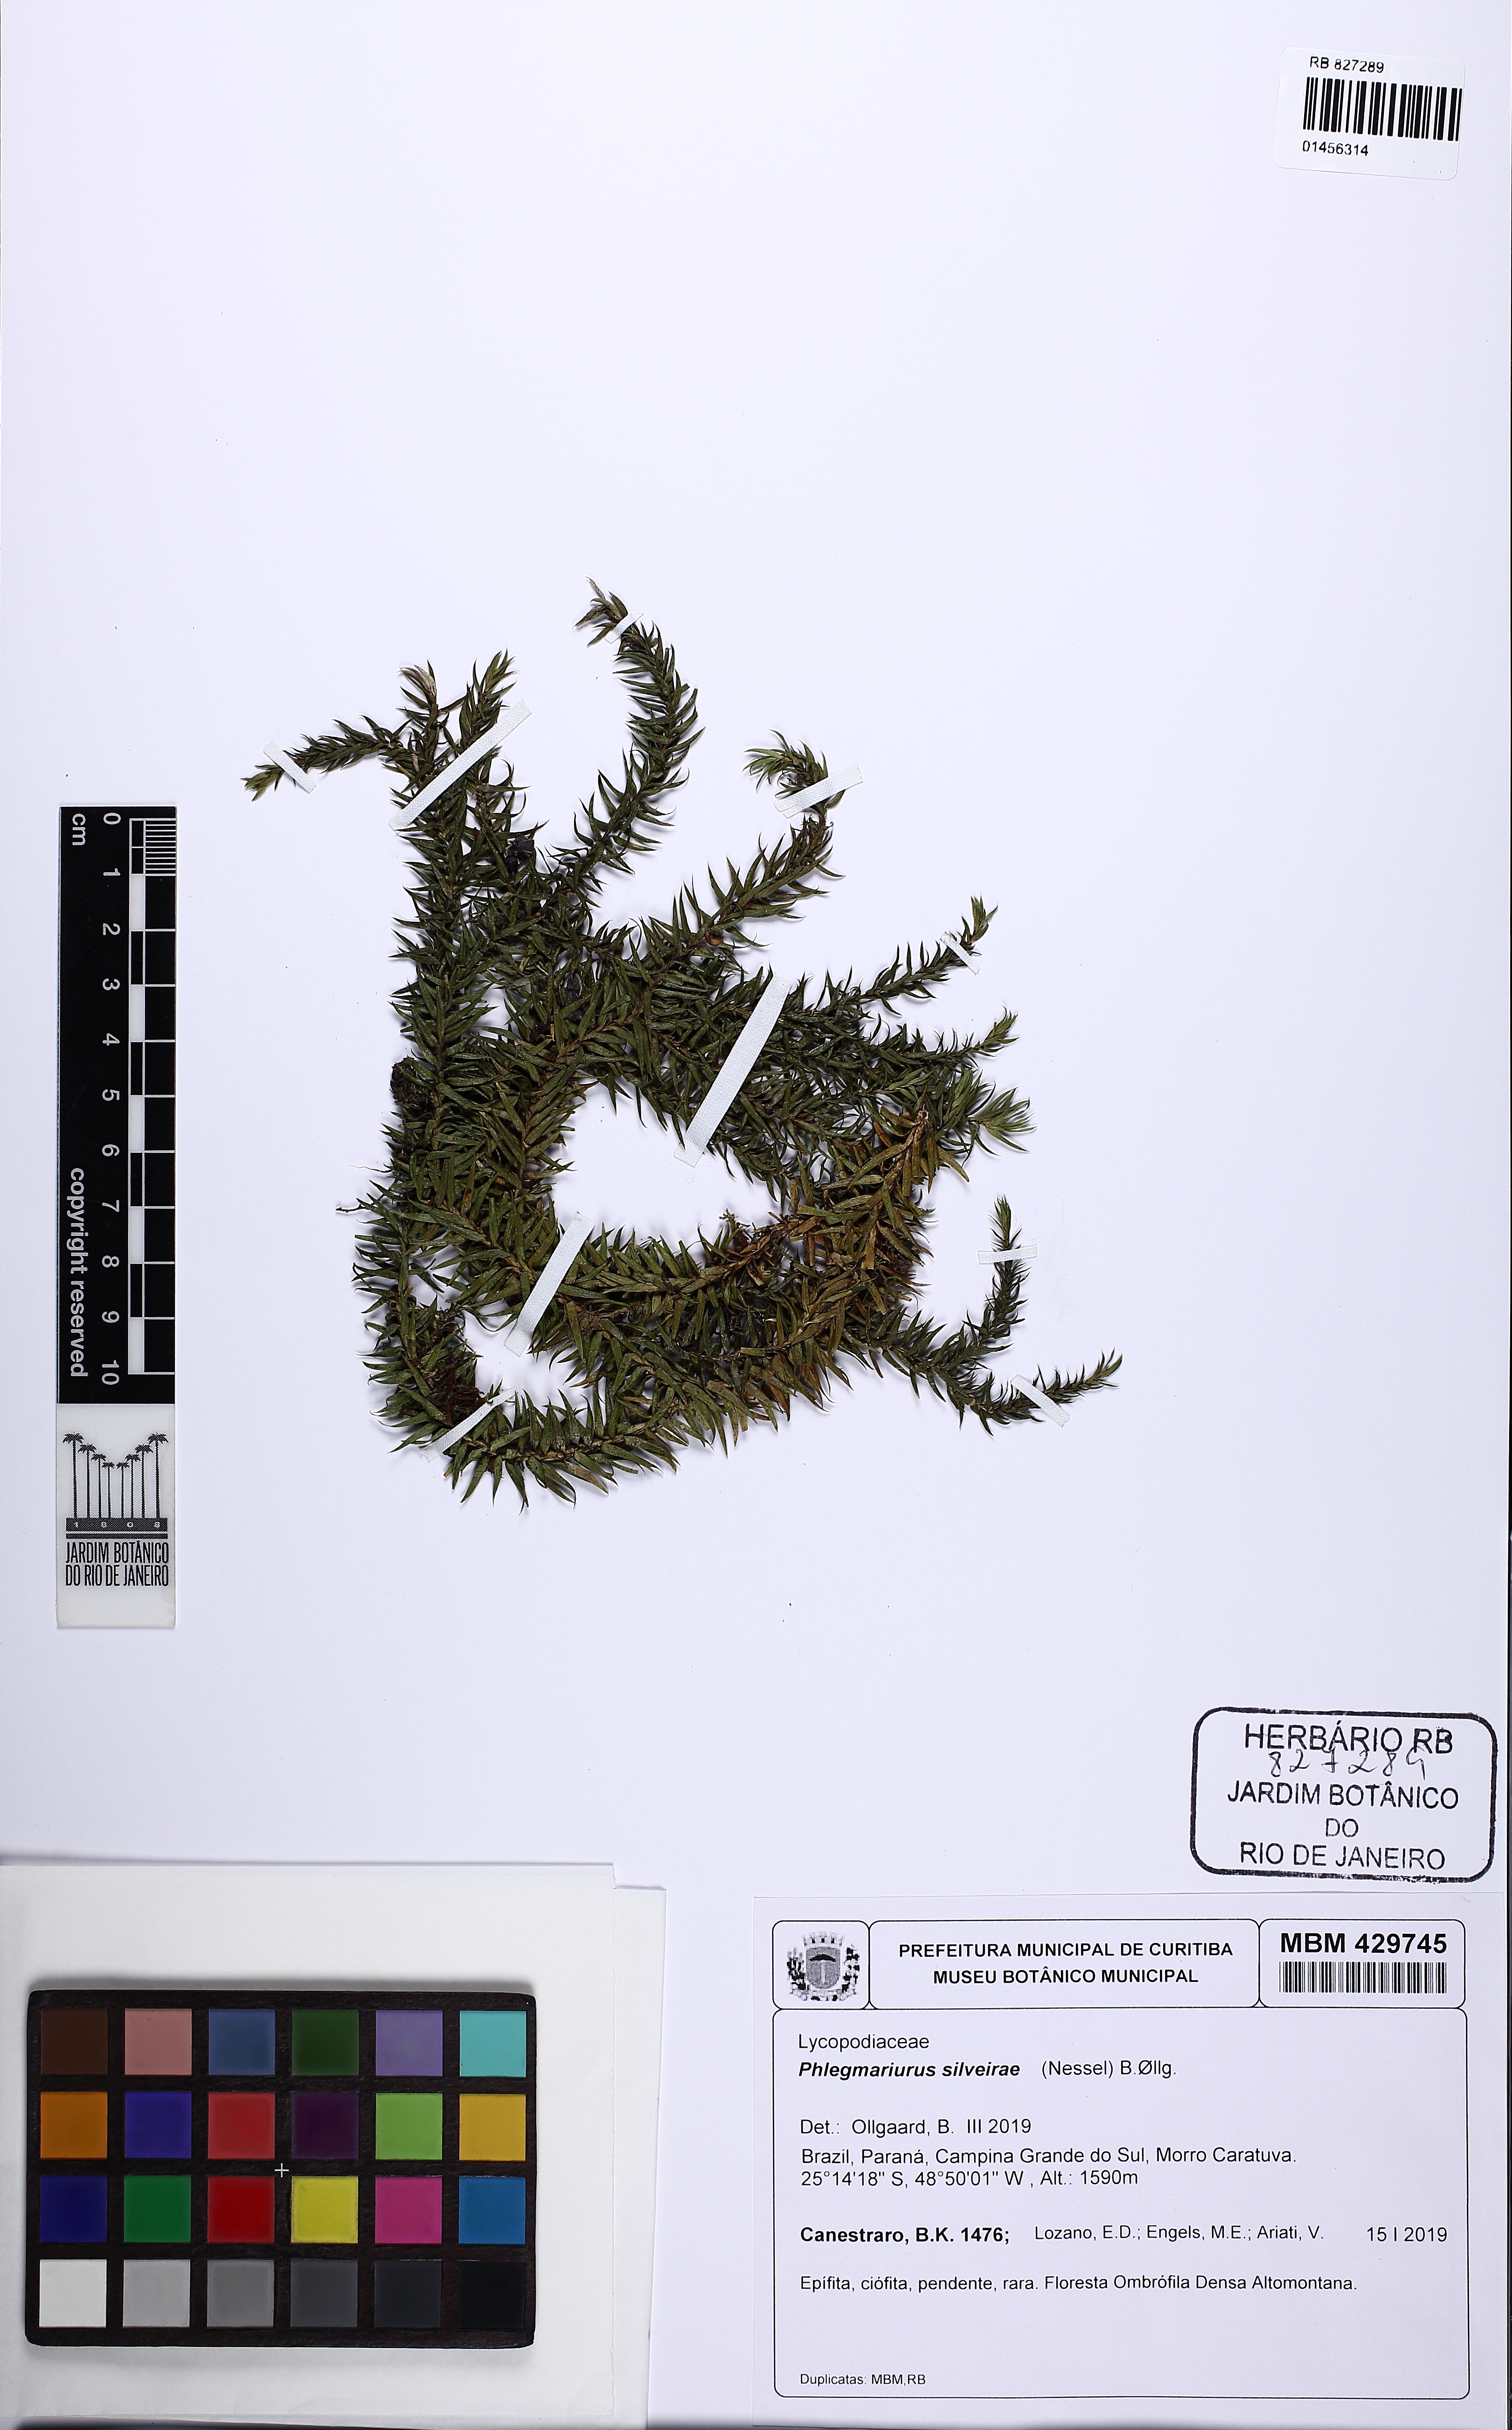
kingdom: Plantae
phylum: Tracheophyta
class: Lycopodiopsida
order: Lycopodiales
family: Lycopodiaceae
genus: Phlegmariurus
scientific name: Phlegmariurus silveirae
